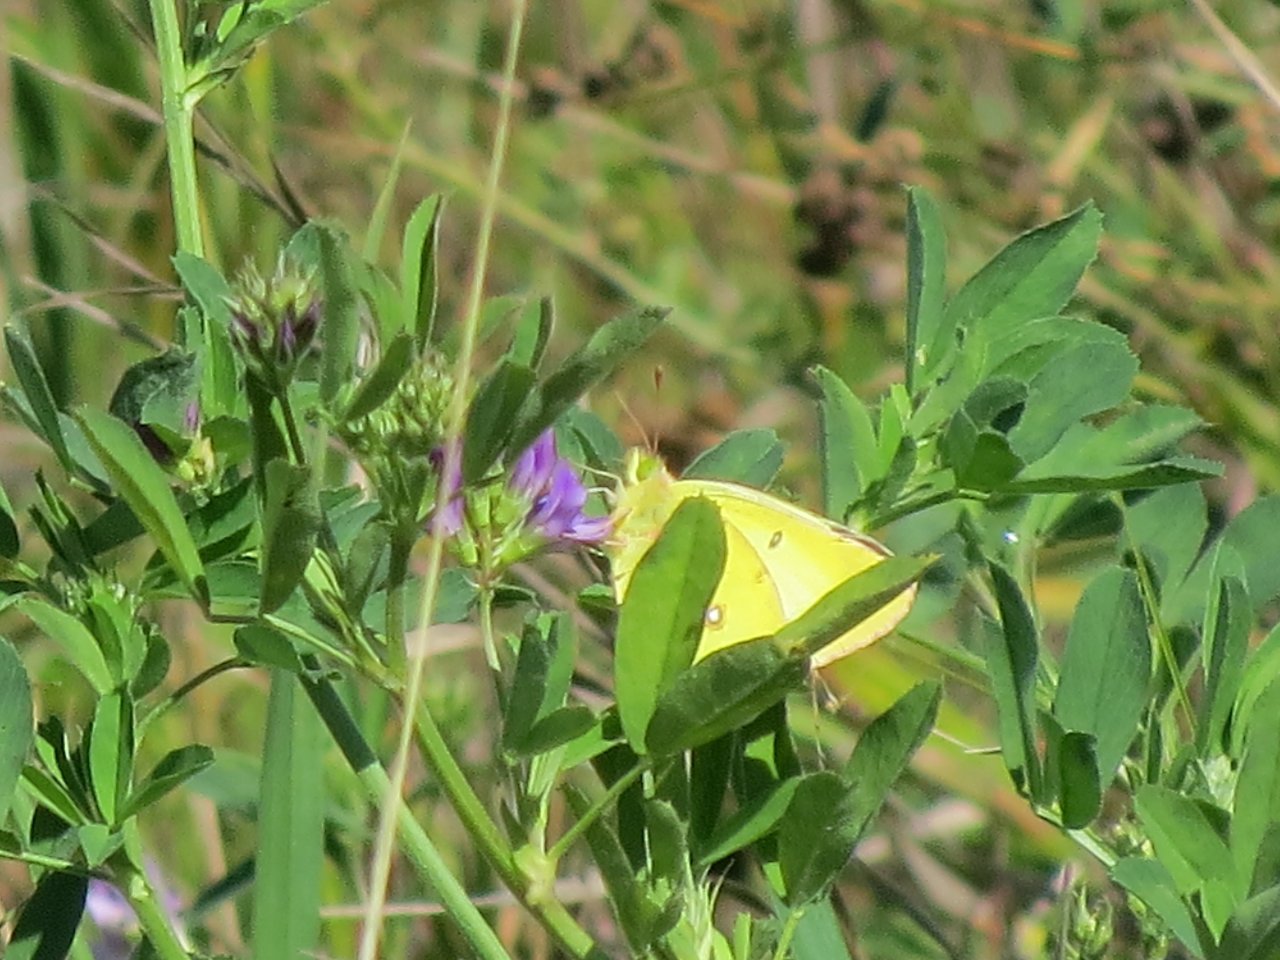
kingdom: Animalia
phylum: Arthropoda
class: Insecta
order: Lepidoptera
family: Pieridae
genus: Colias
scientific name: Colias philodice
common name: Clouded Sulphur
